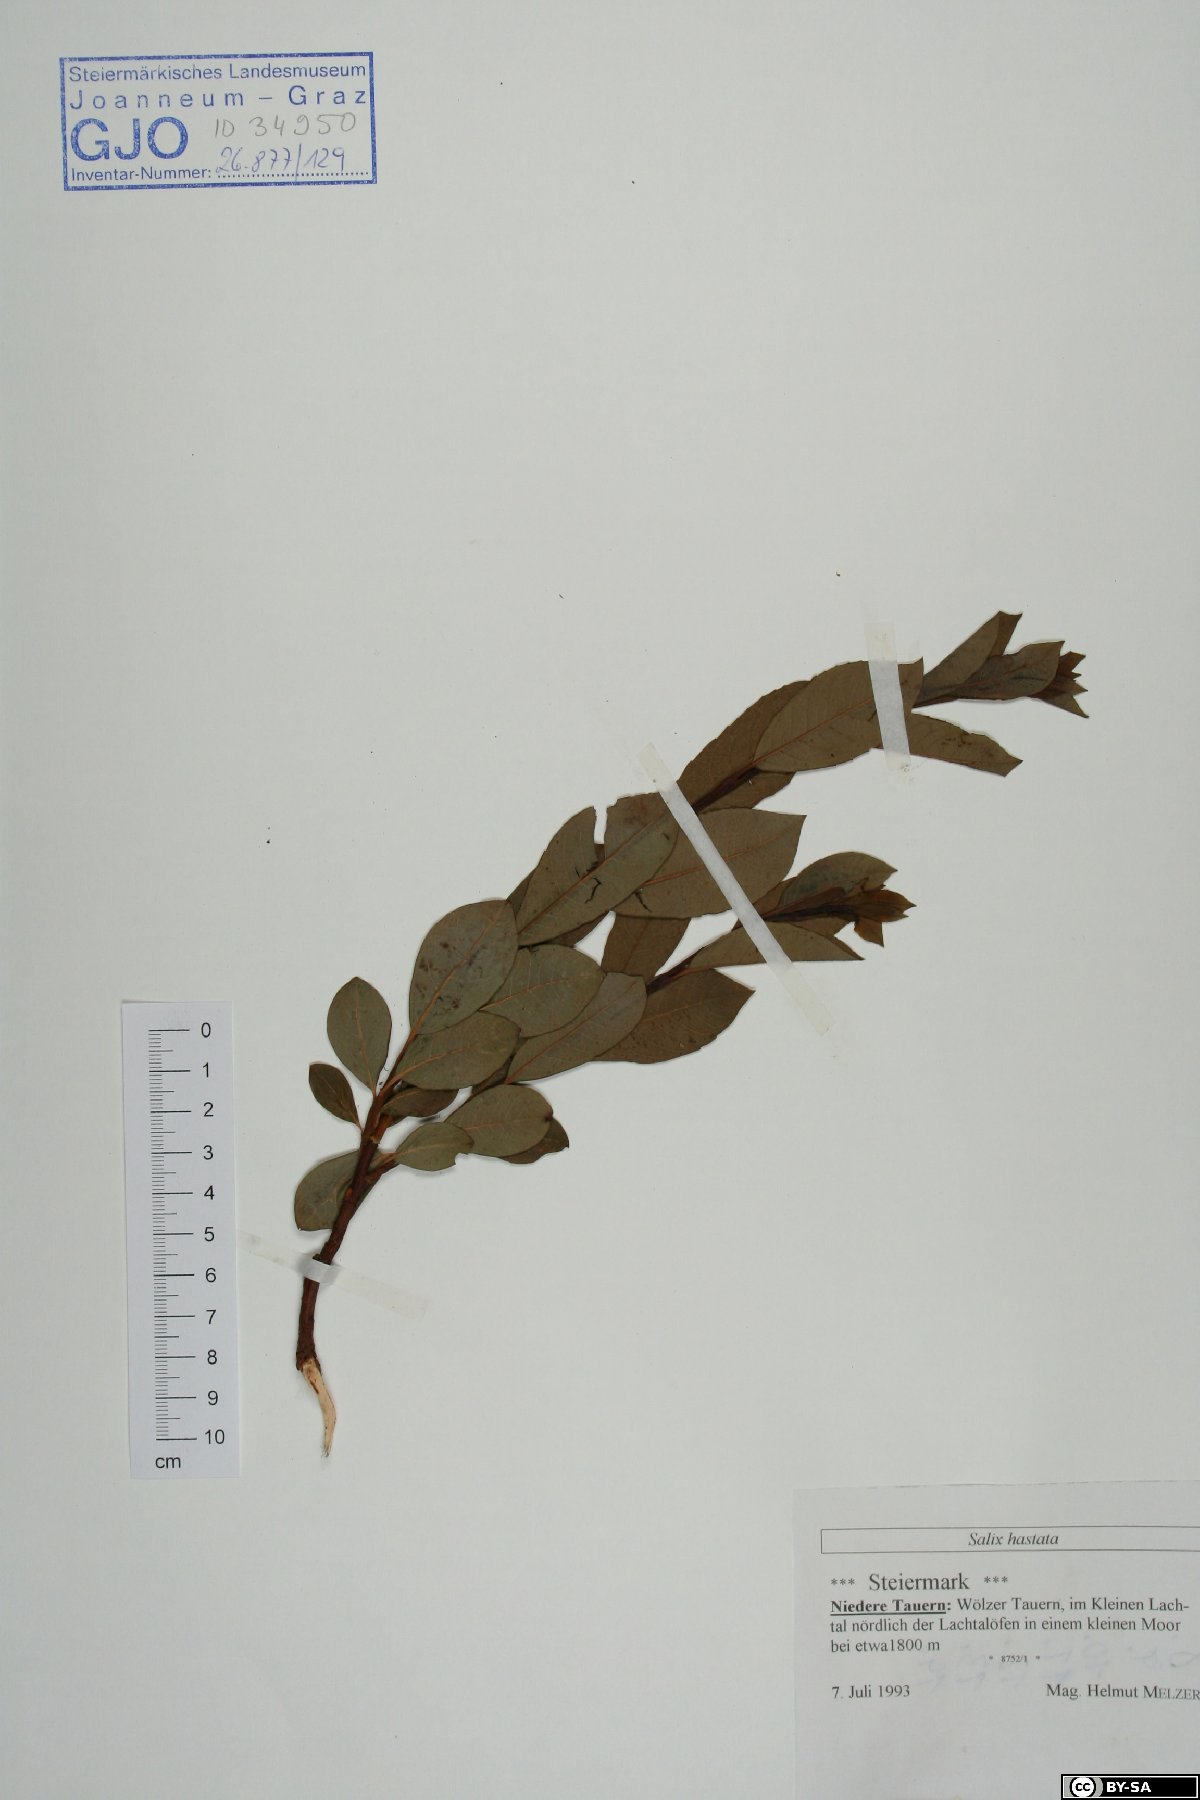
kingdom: Plantae
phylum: Tracheophyta
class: Magnoliopsida
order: Malpighiales
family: Salicaceae
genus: Salix
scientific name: Salix hastata
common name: Halberd willow
